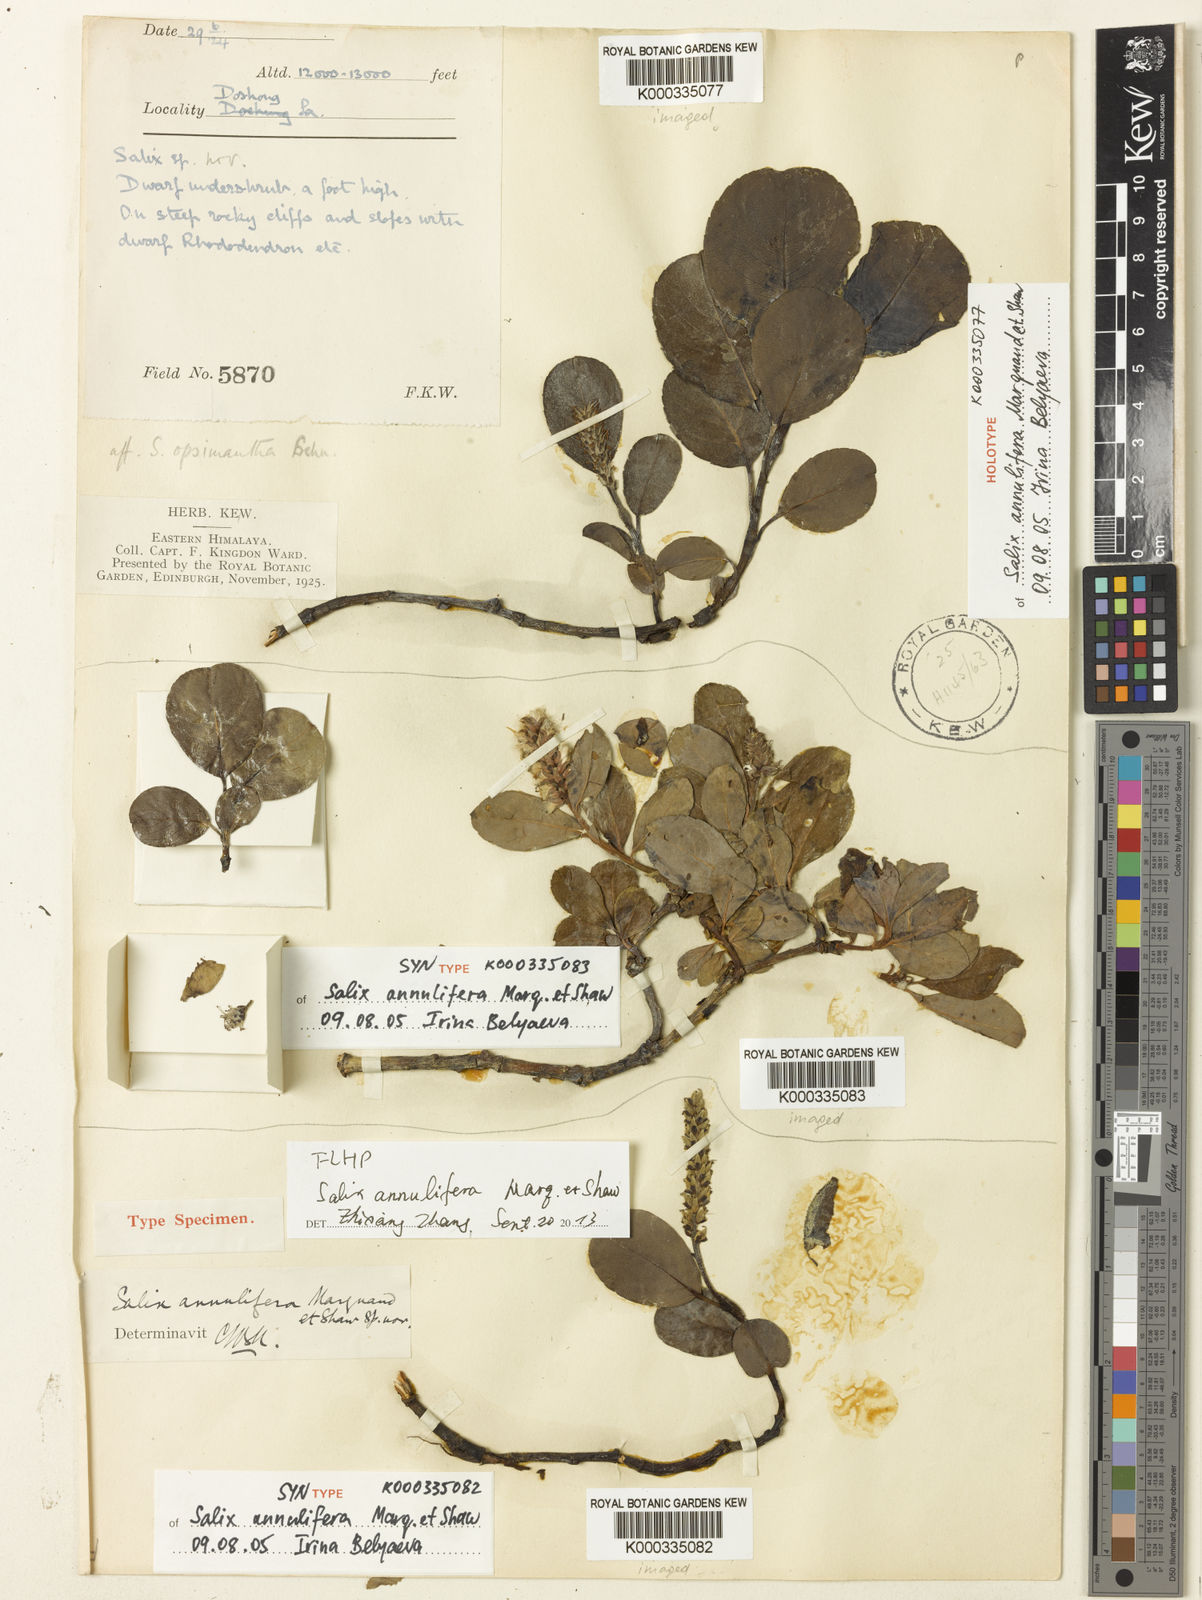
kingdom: Plantae
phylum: Tracheophyta
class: Magnoliopsida
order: Malpighiales
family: Salicaceae
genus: Salix
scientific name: Salix
